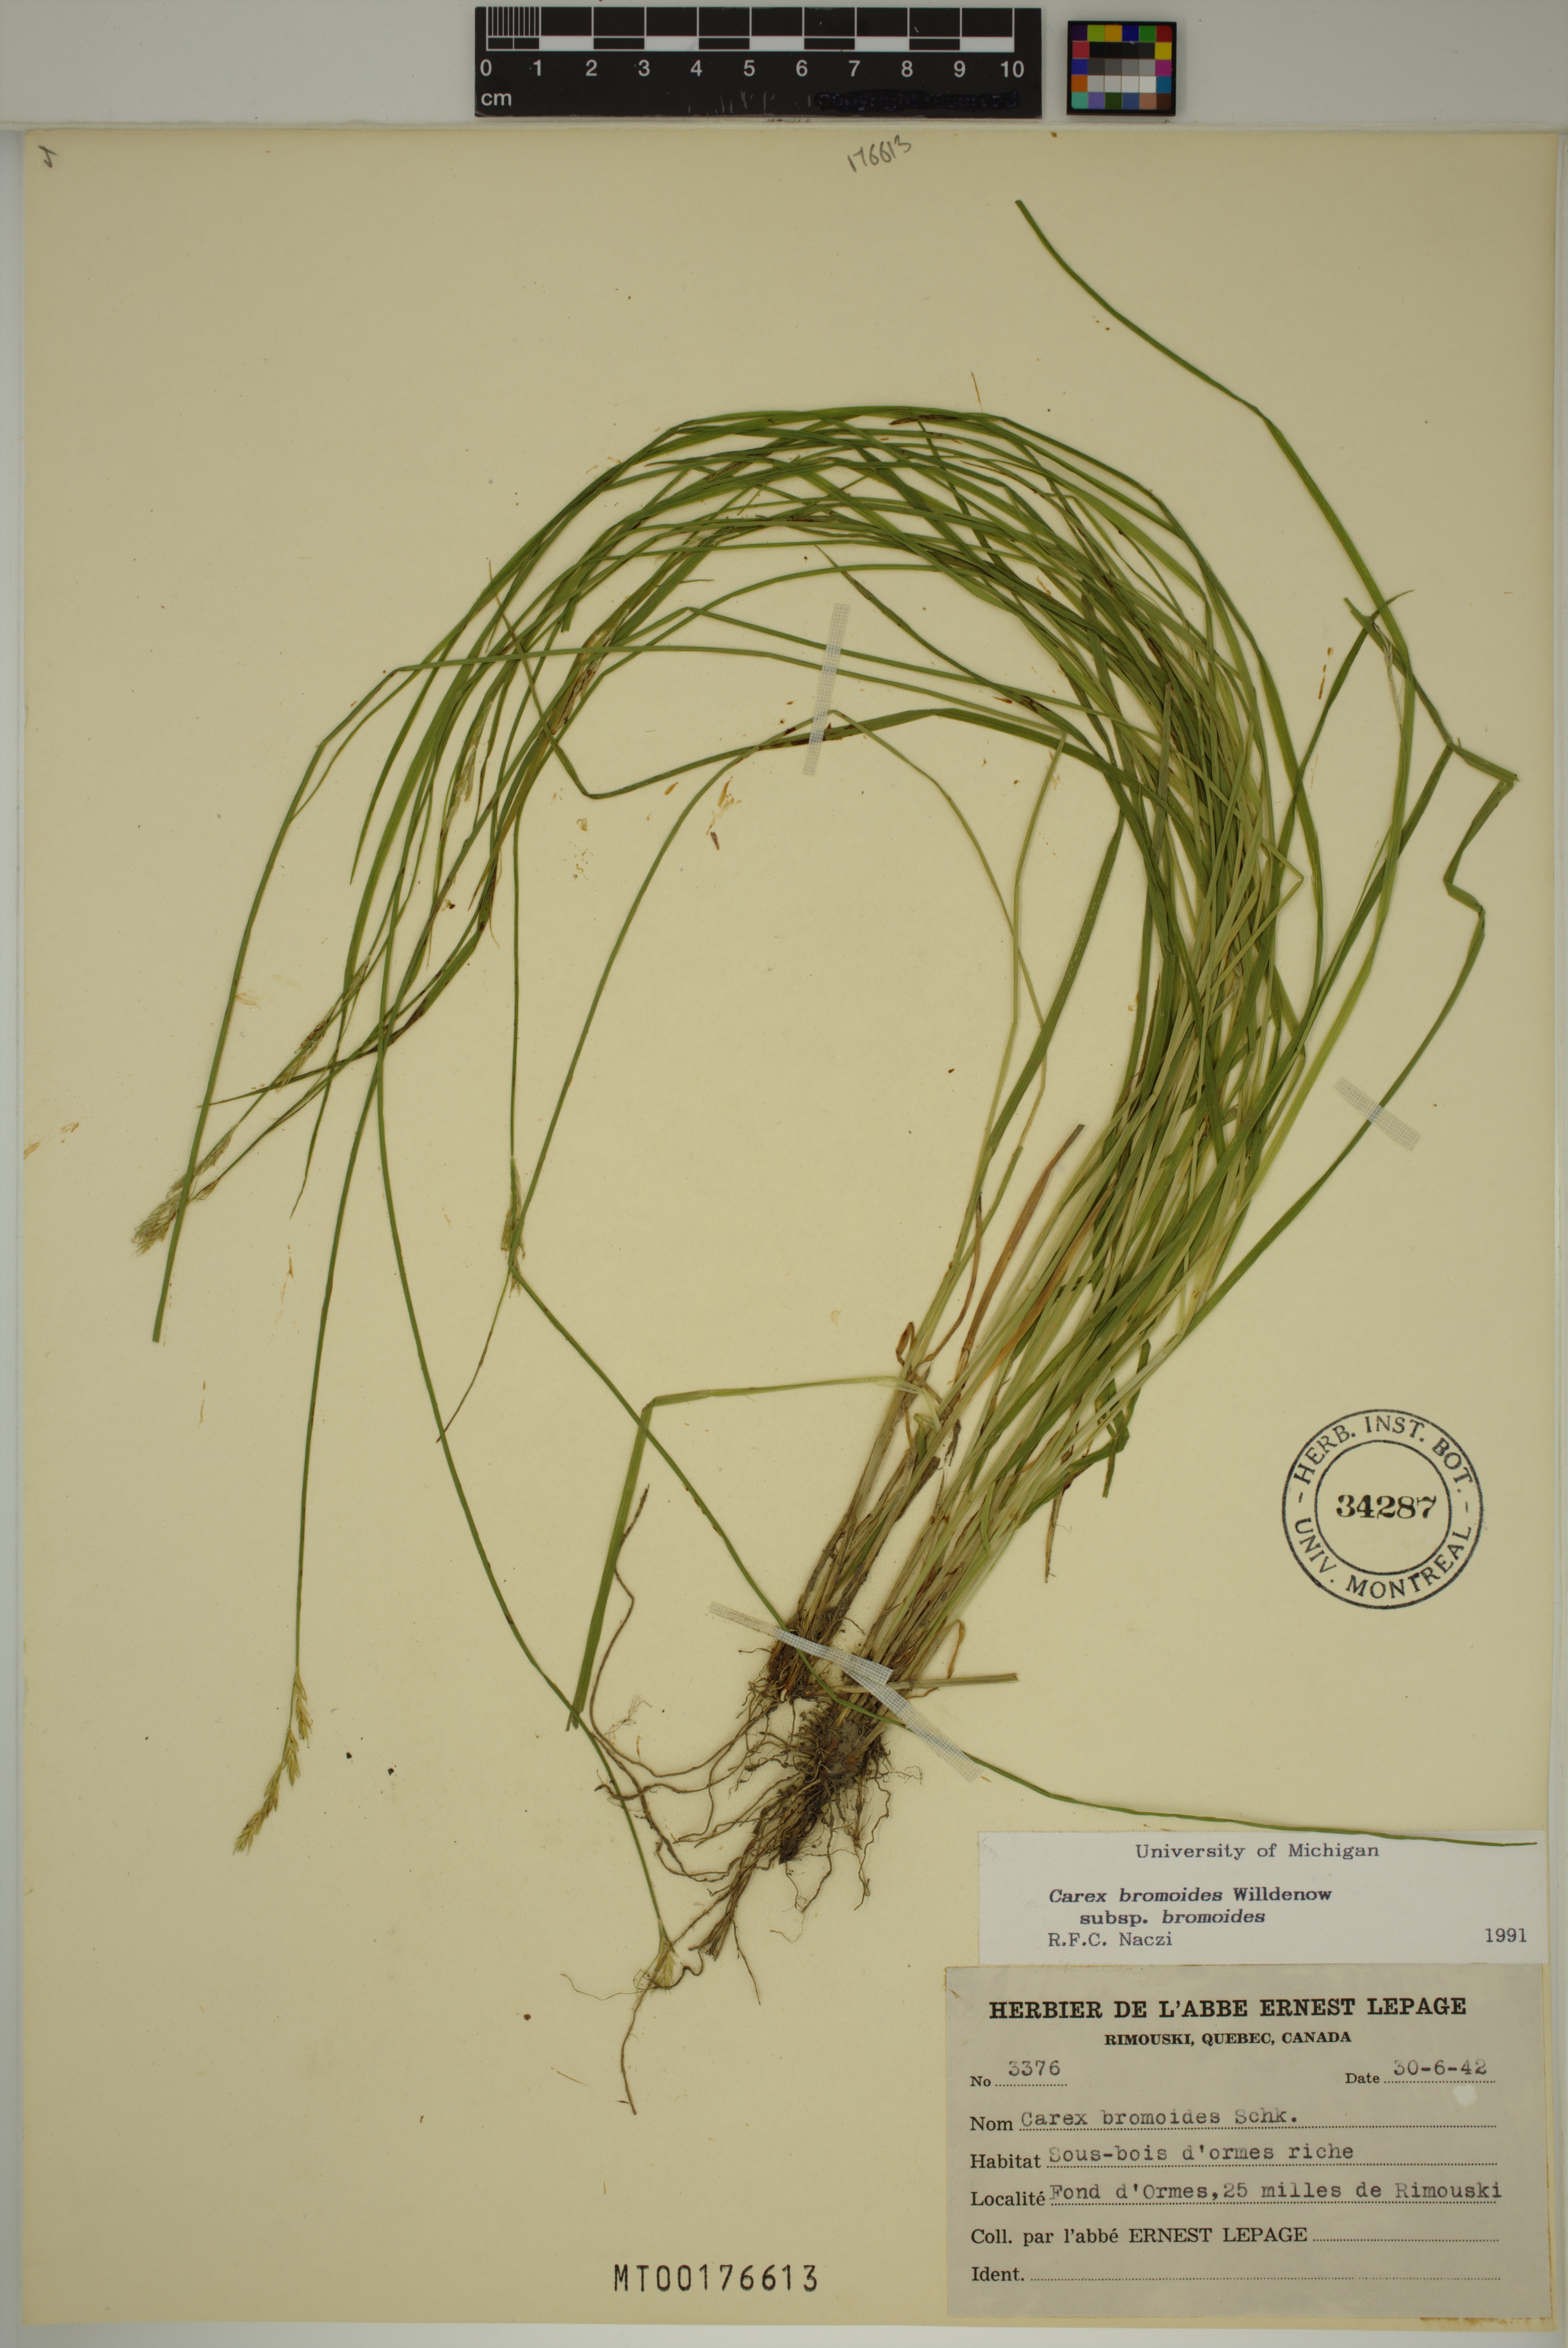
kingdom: Plantae
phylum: Tracheophyta
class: Liliopsida
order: Poales
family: Cyperaceae
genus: Carex
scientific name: Carex bromoides
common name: Brome hummock sedge
